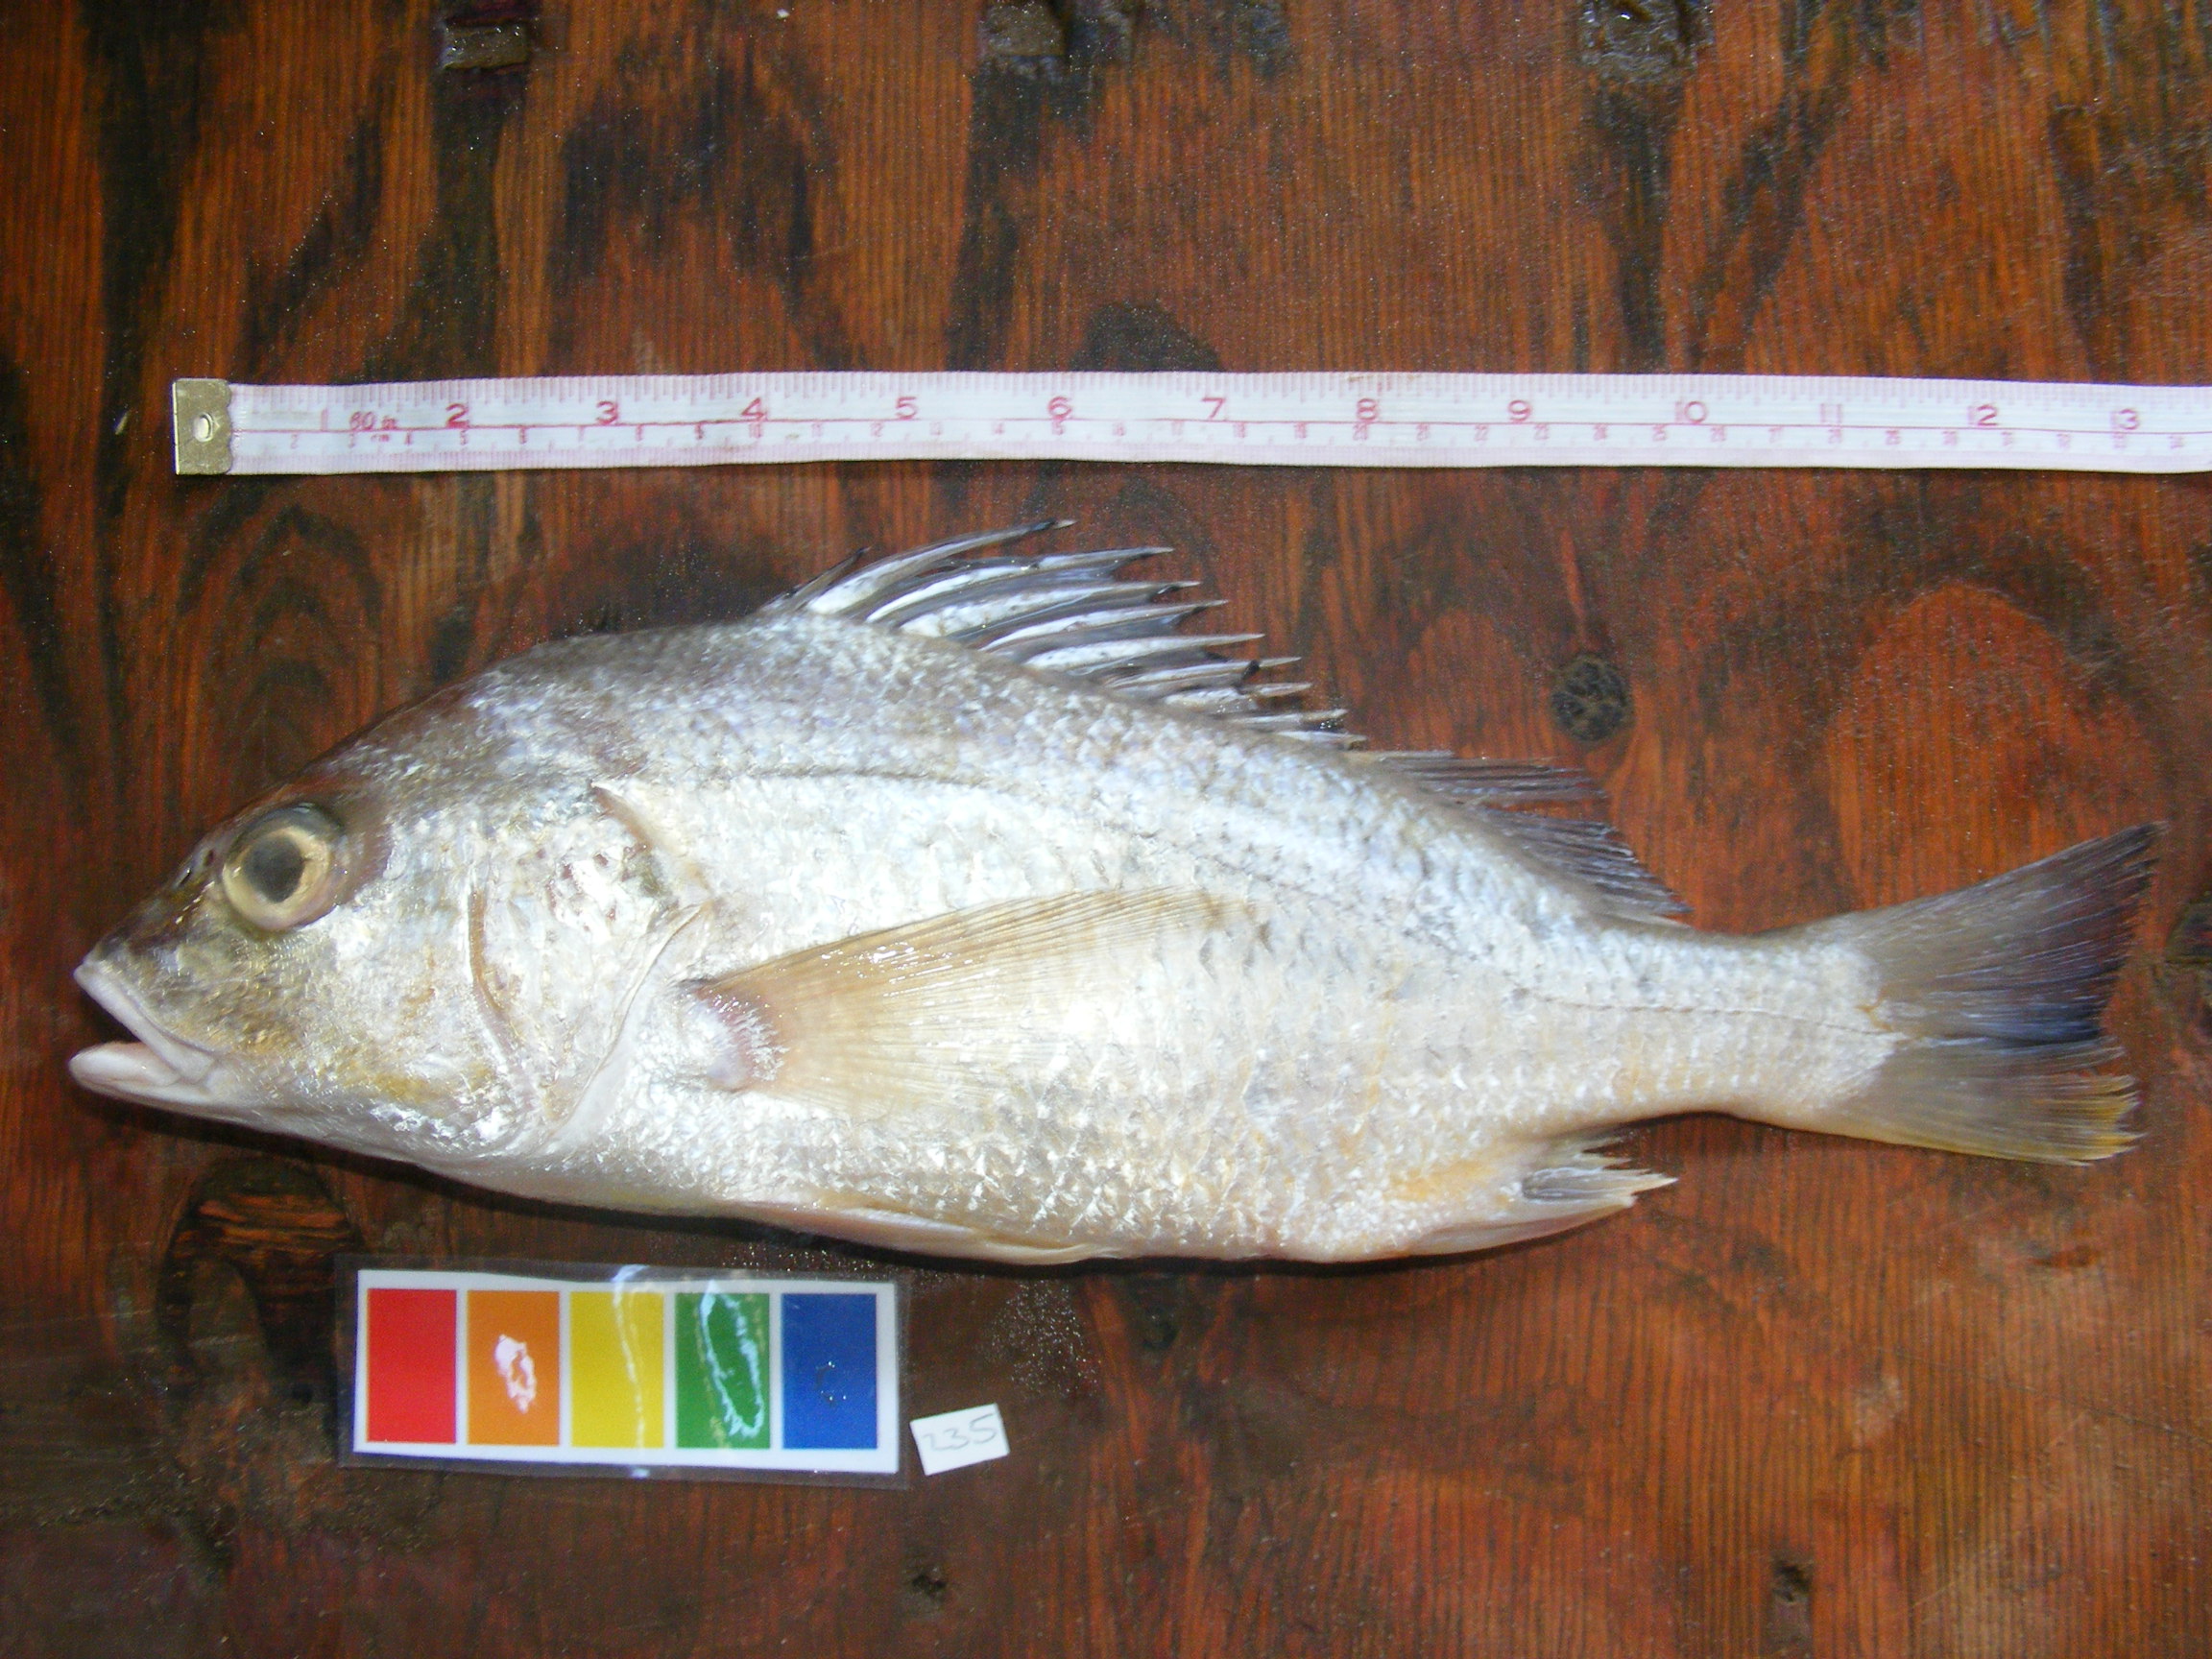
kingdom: Animalia
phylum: Chordata
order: Perciformes
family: Haemulidae
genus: Pomadasys
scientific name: Pomadasys kaakan
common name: Javelin grunter
